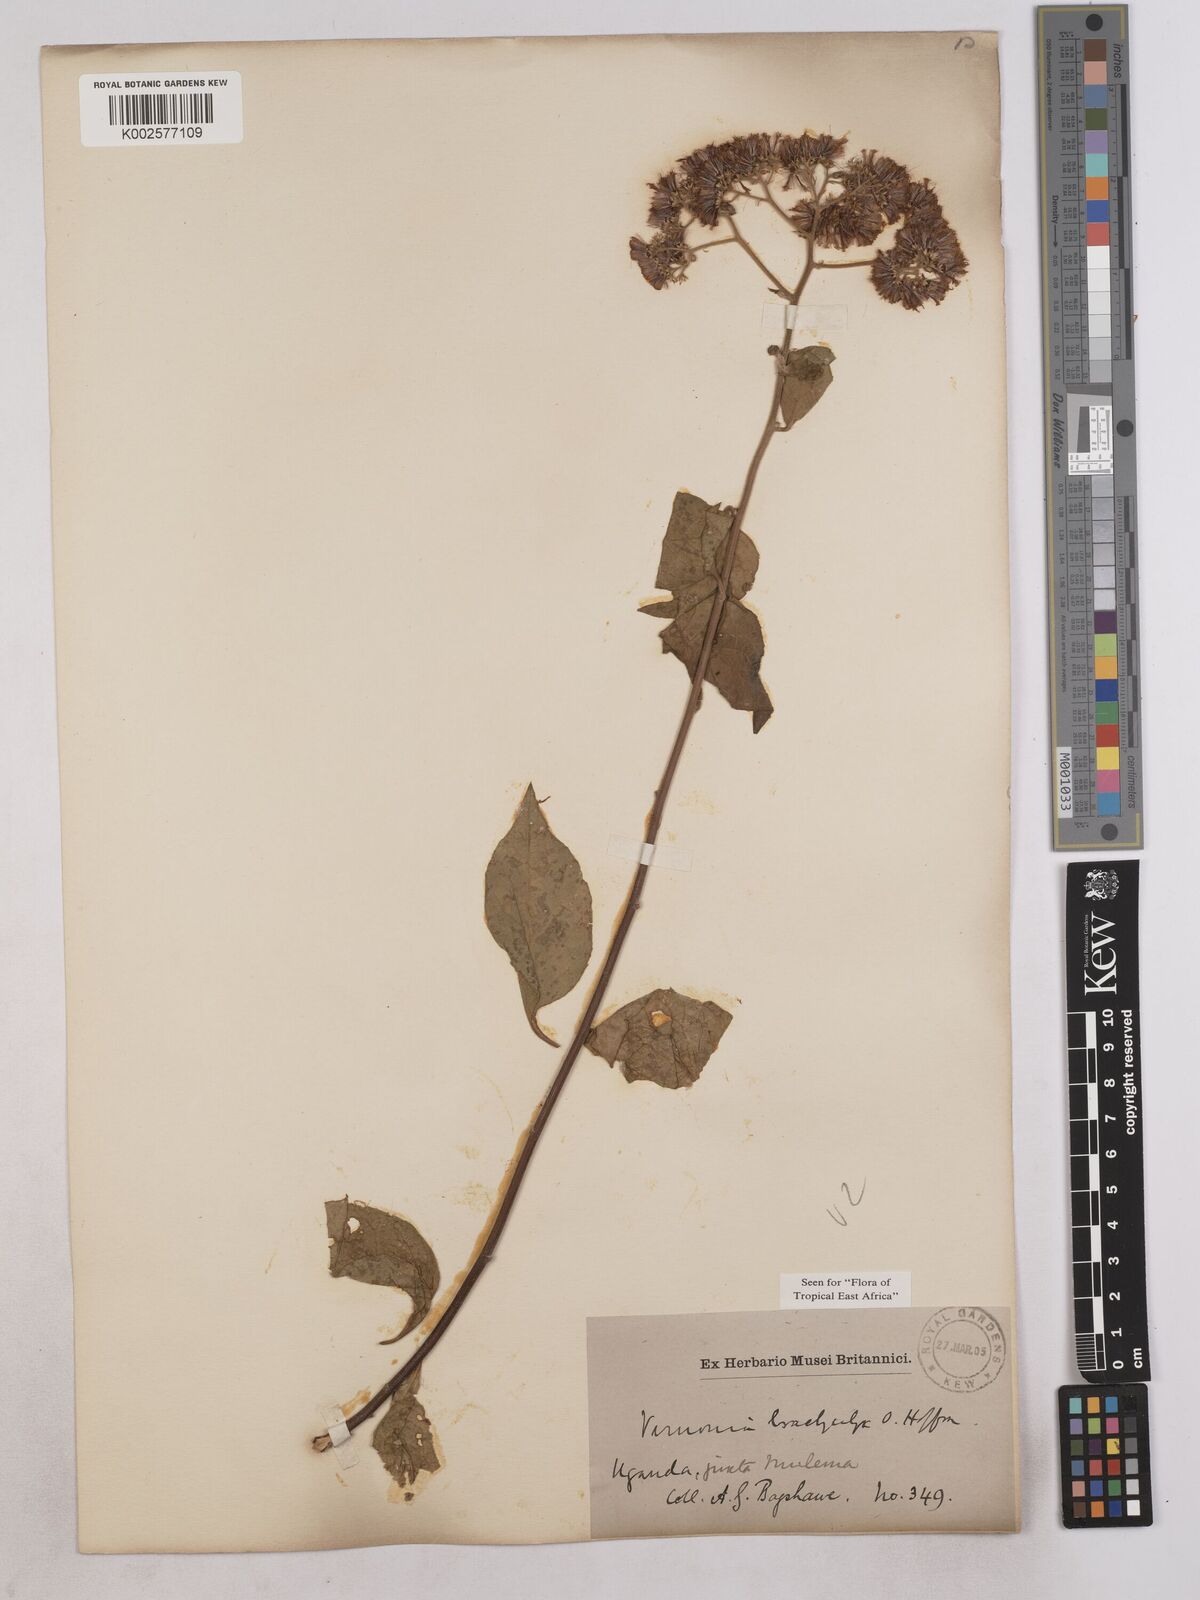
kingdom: Plantae
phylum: Tracheophyta
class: Magnoliopsida
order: Asterales
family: Asteraceae
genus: Hoffmannanthus
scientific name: Hoffmannanthus abbotianus
